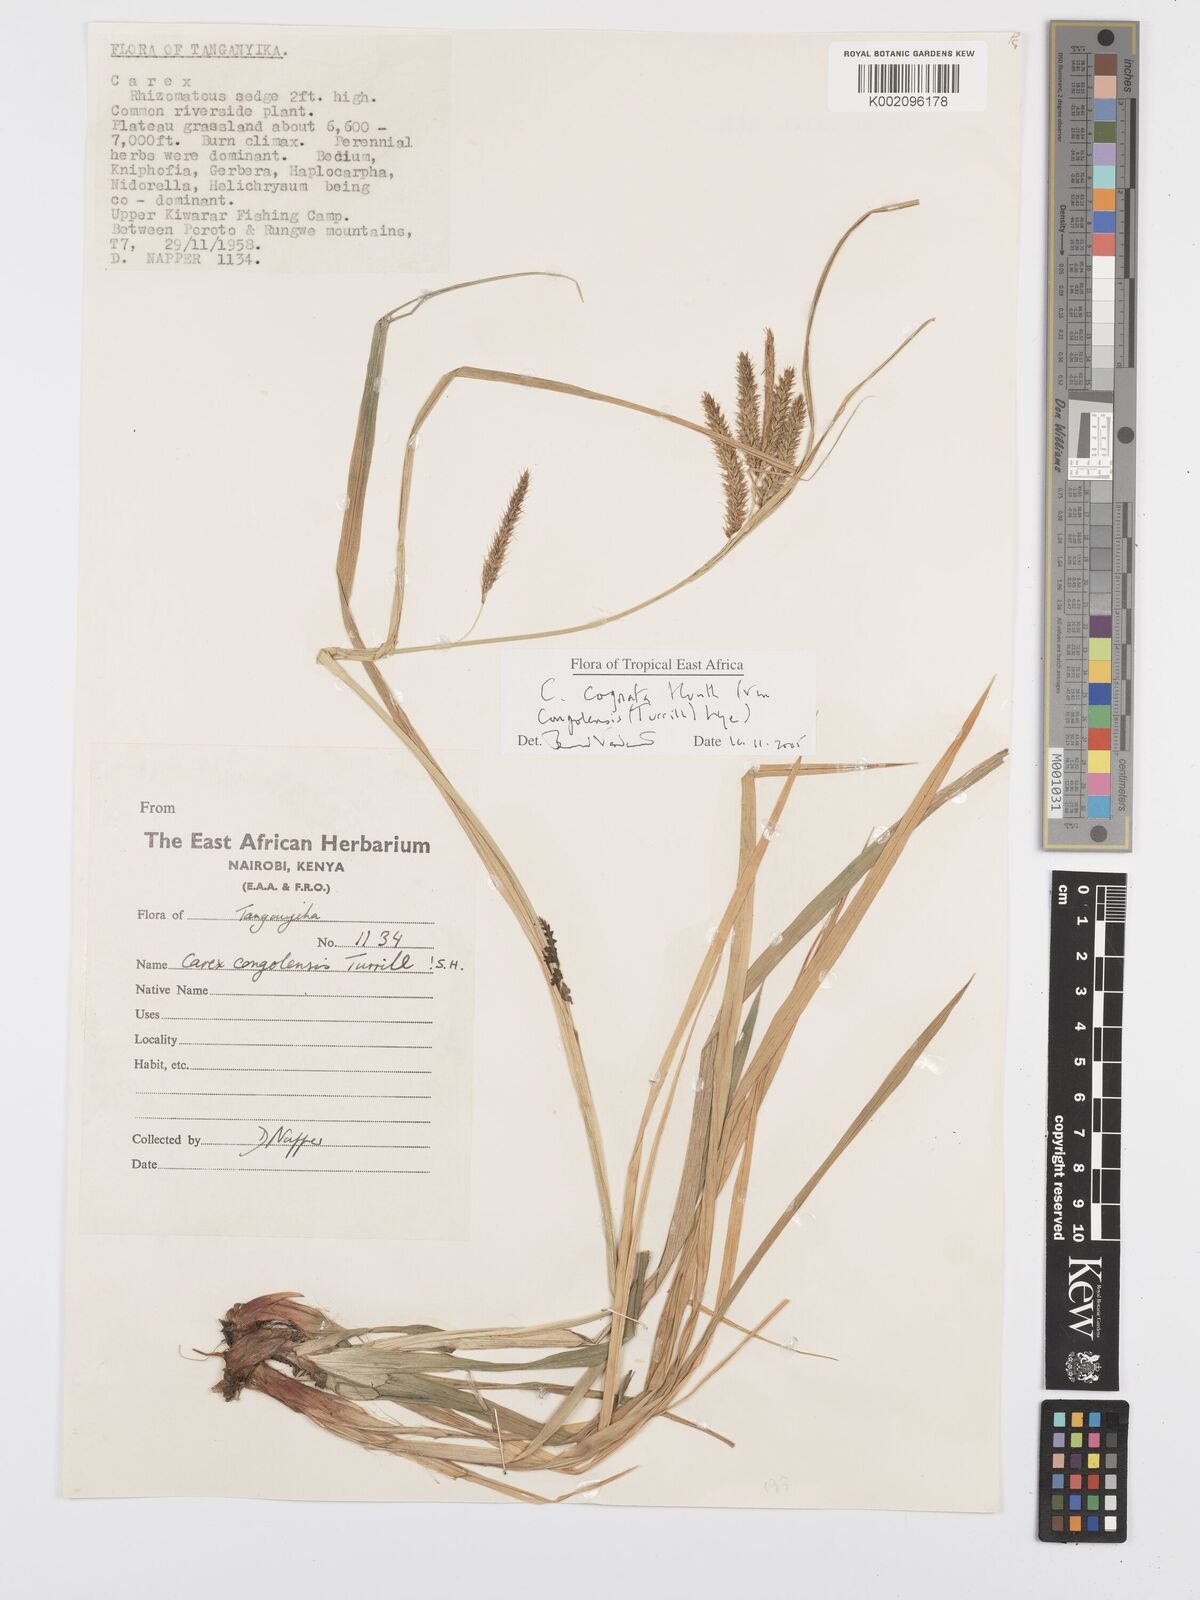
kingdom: Plantae
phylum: Tracheophyta
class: Liliopsida
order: Poales
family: Cyperaceae
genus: Carex
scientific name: Carex congolensis
